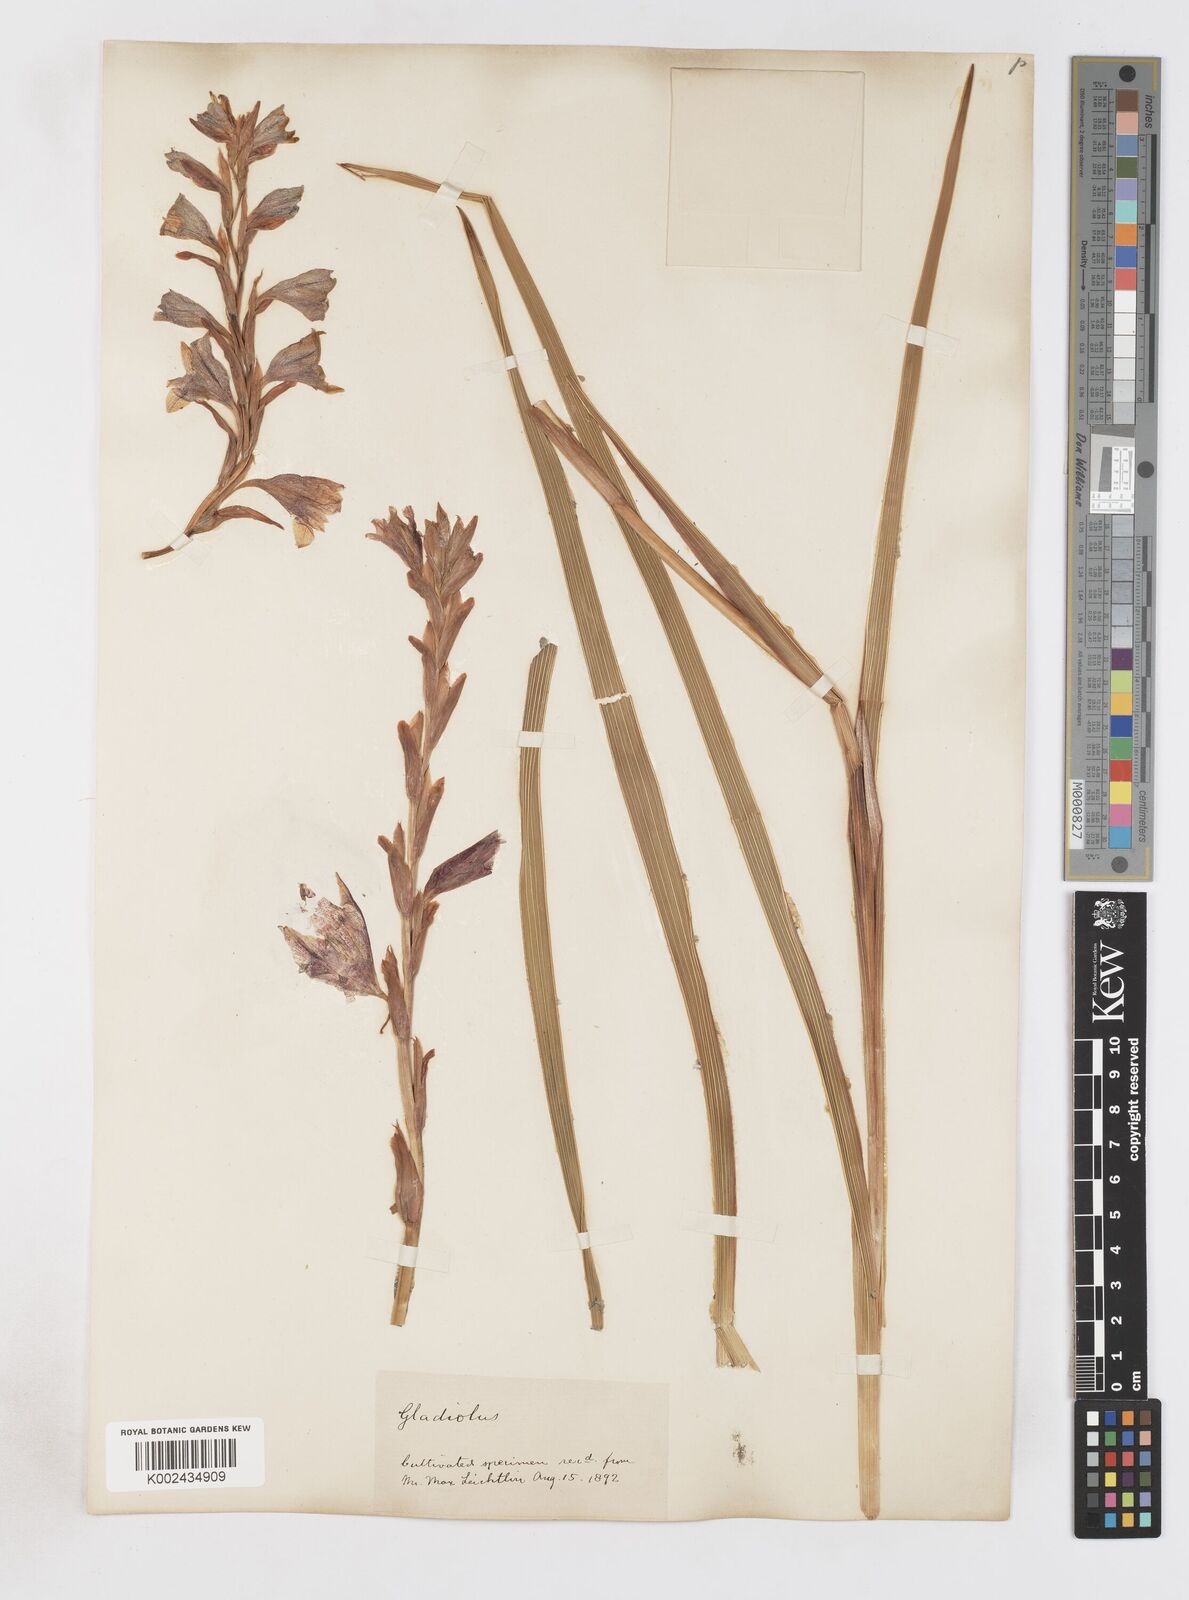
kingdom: Plantae
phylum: Tracheophyta
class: Liliopsida
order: Asparagales
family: Iridaceae
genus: Gladiolus
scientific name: Gladiolus elliotii
